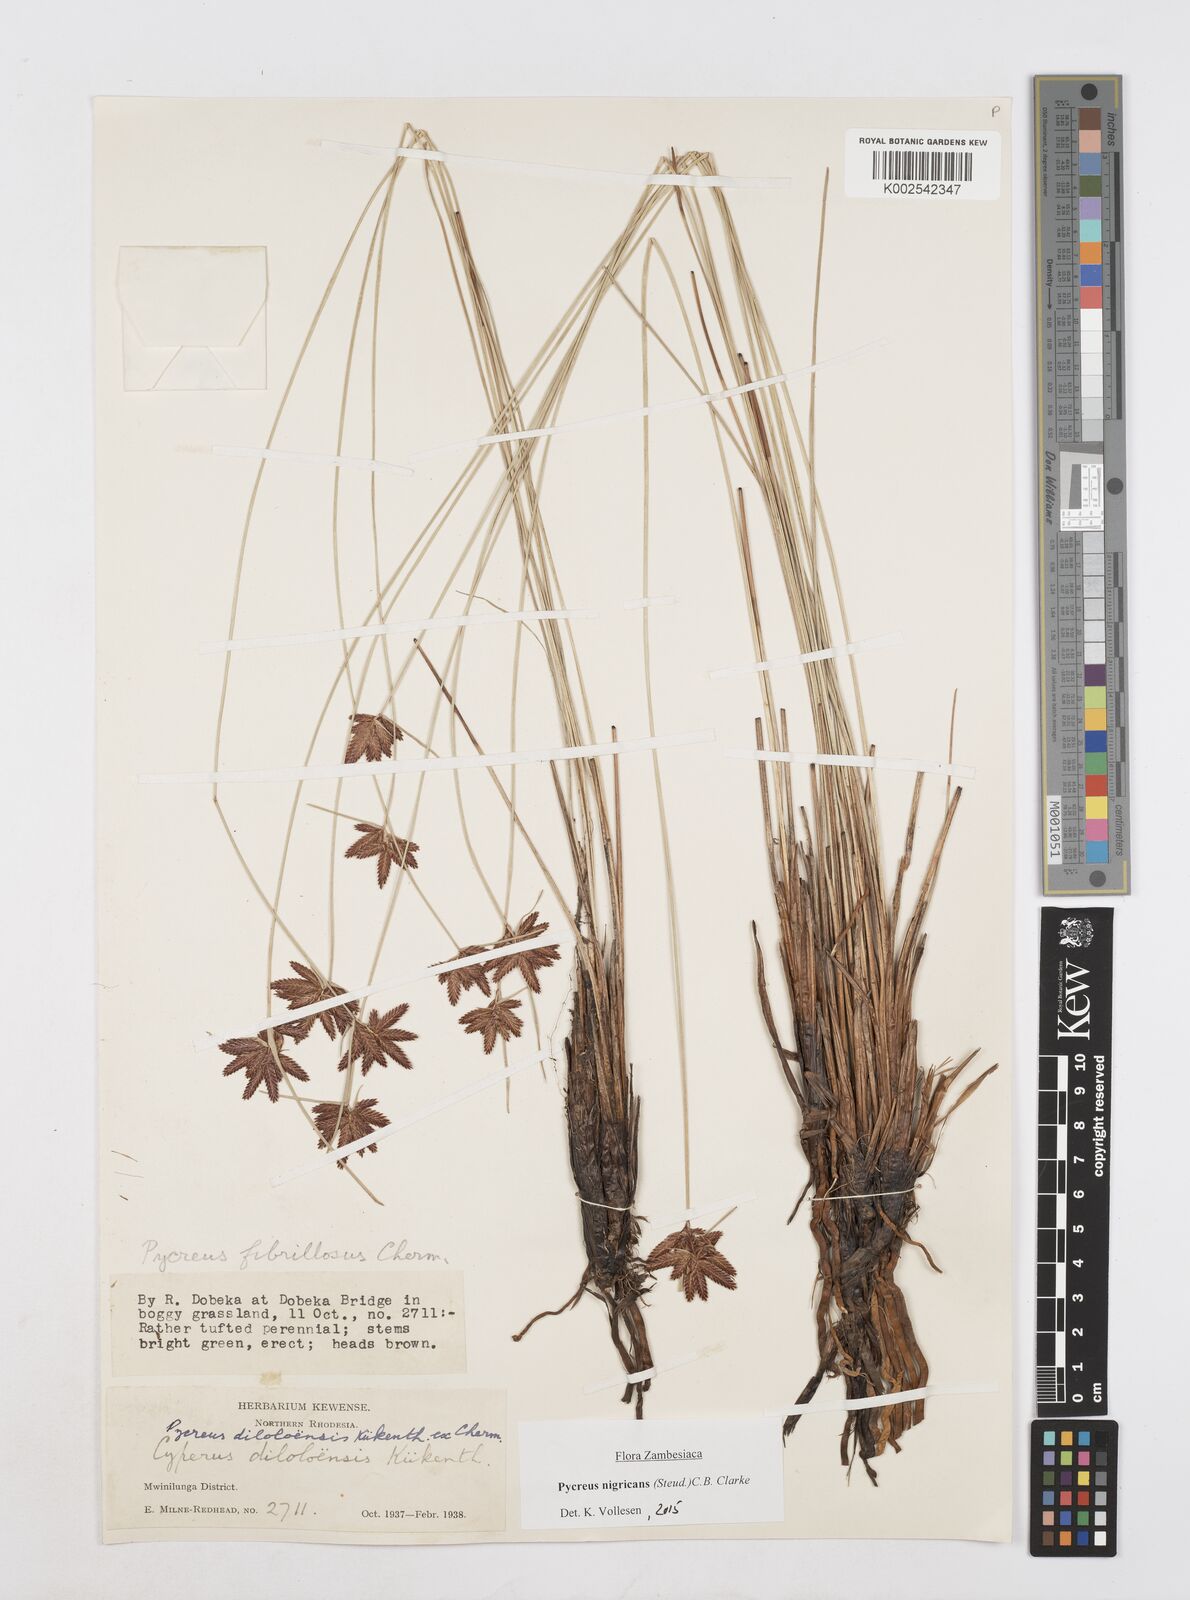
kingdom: Plantae
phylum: Tracheophyta
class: Liliopsida
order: Poales
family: Cyperaceae
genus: Cyperus
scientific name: Cyperus nigricans
